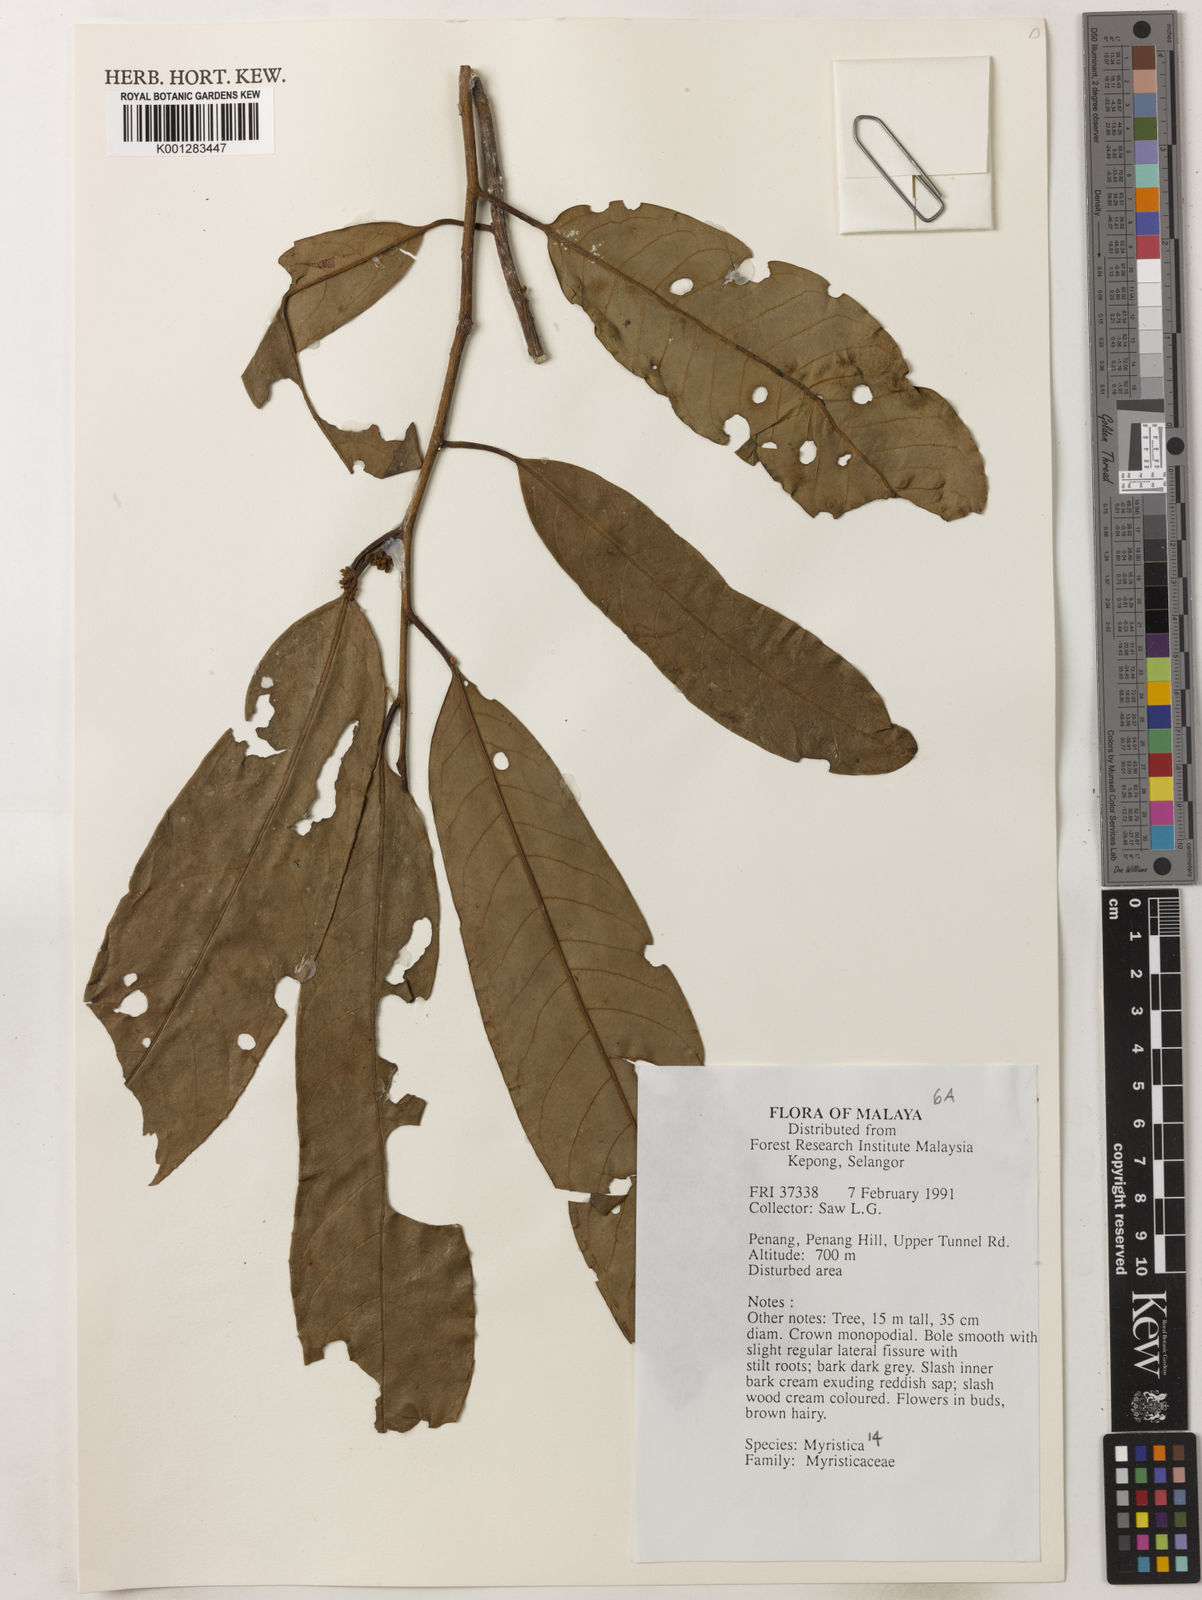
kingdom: Plantae
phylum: Tracheophyta
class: Magnoliopsida
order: Magnoliales
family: Myristicaceae
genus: Myristica
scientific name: Myristica
